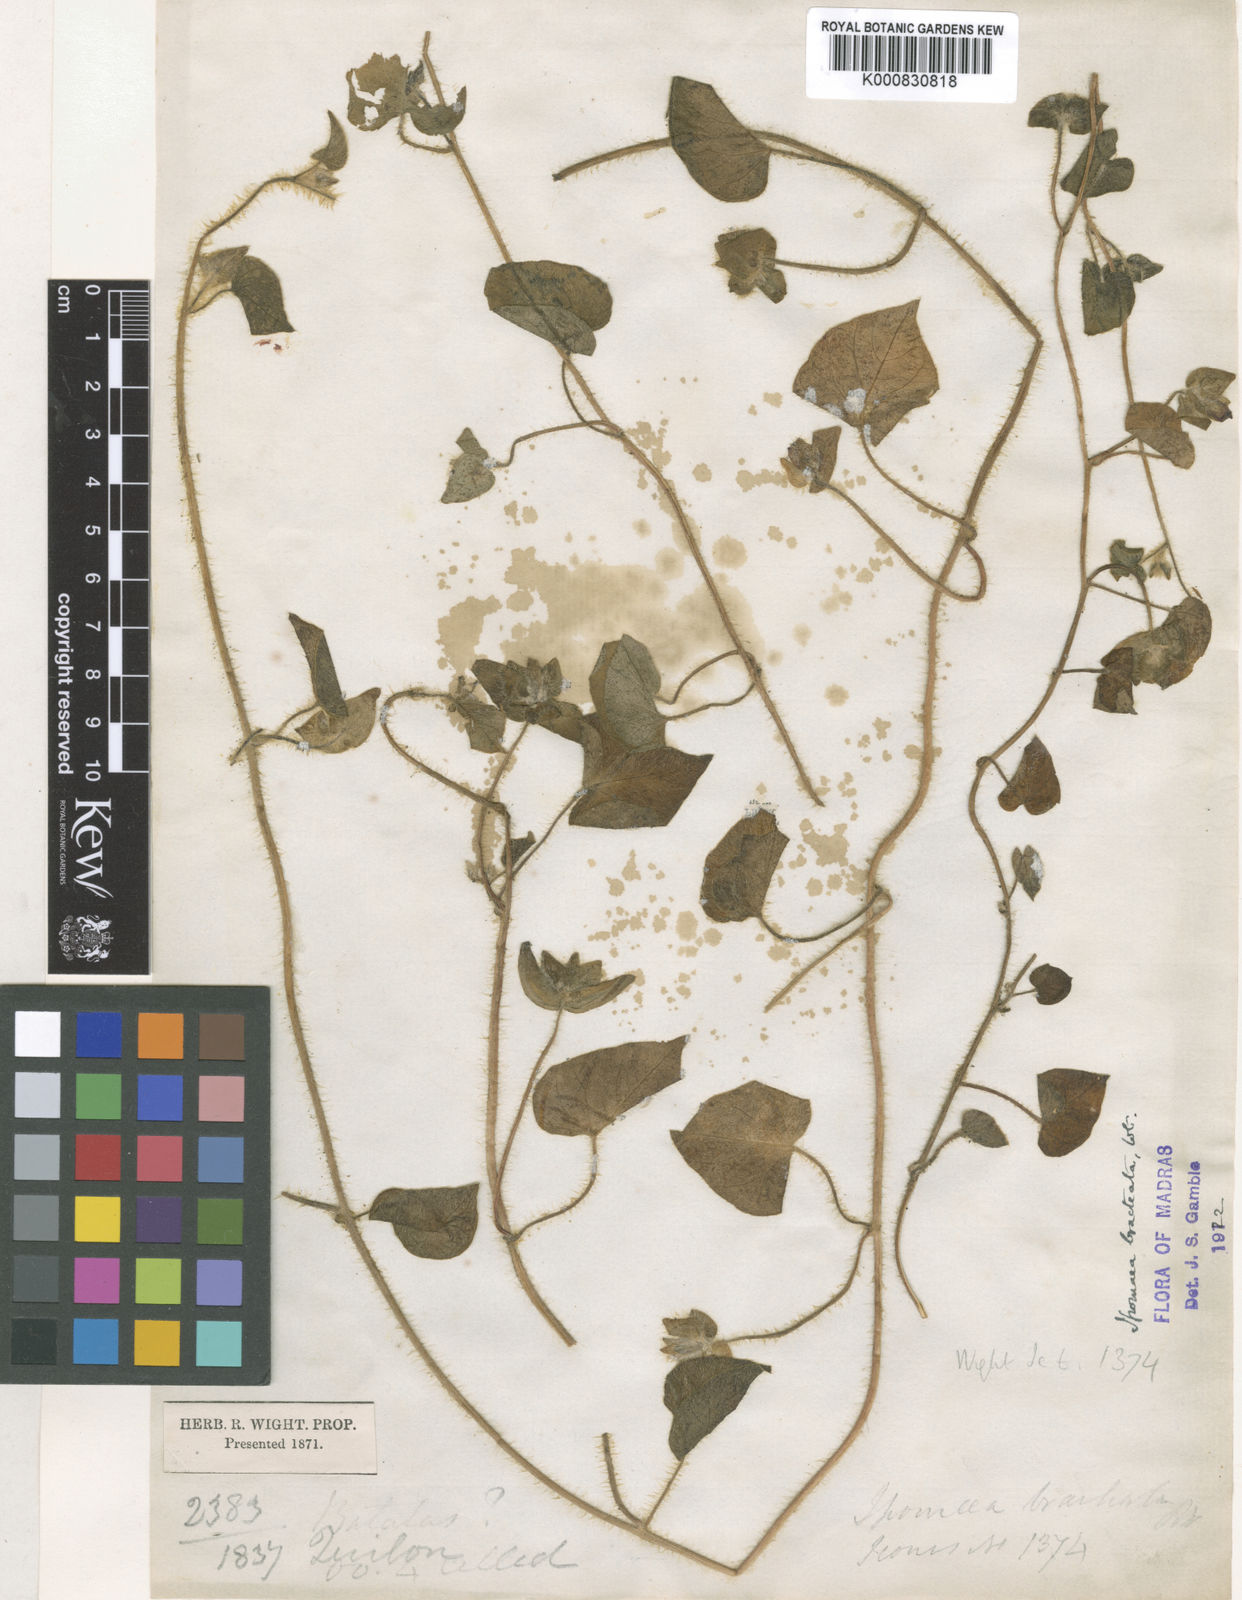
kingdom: Plantae
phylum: Tracheophyta
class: Magnoliopsida
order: Solanales
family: Convolvulaceae
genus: Ipomoea
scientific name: Ipomoea deccana
